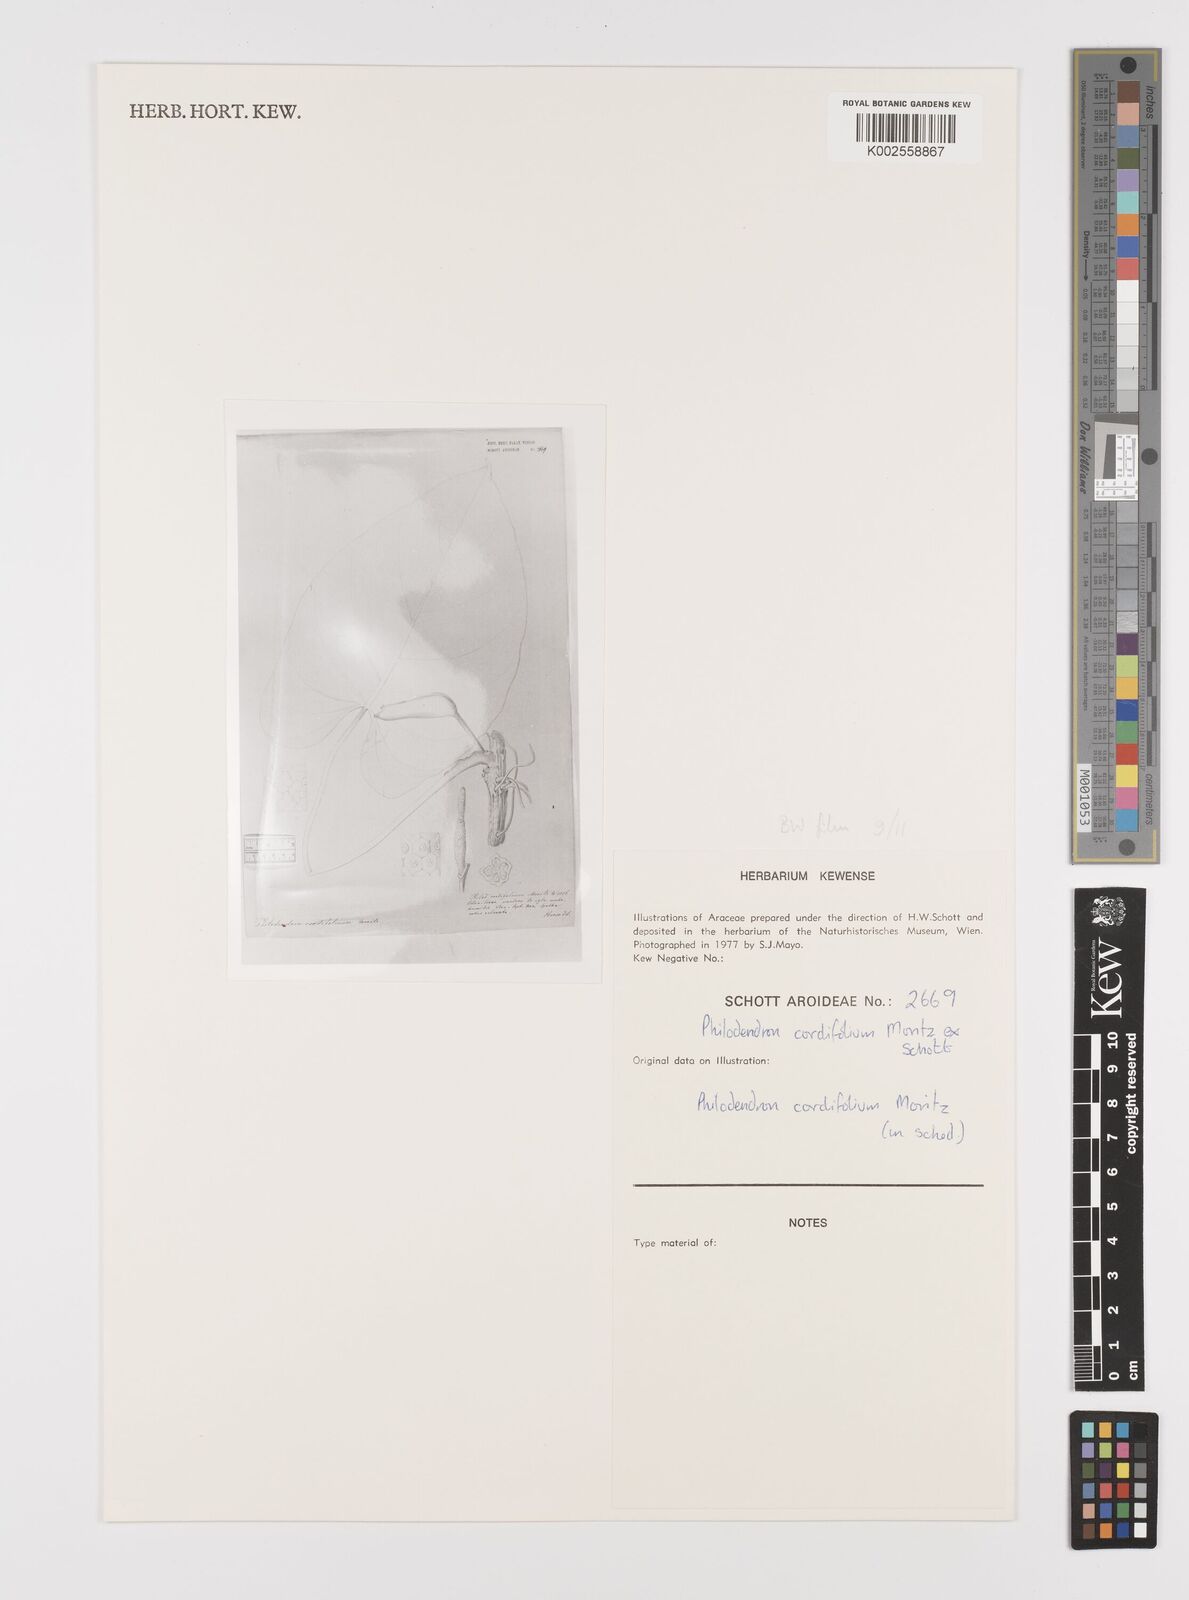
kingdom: Plantae
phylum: Tracheophyta
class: Liliopsida
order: Alismatales
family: Araceae
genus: Philodendron
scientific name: Philodendron fraternum
